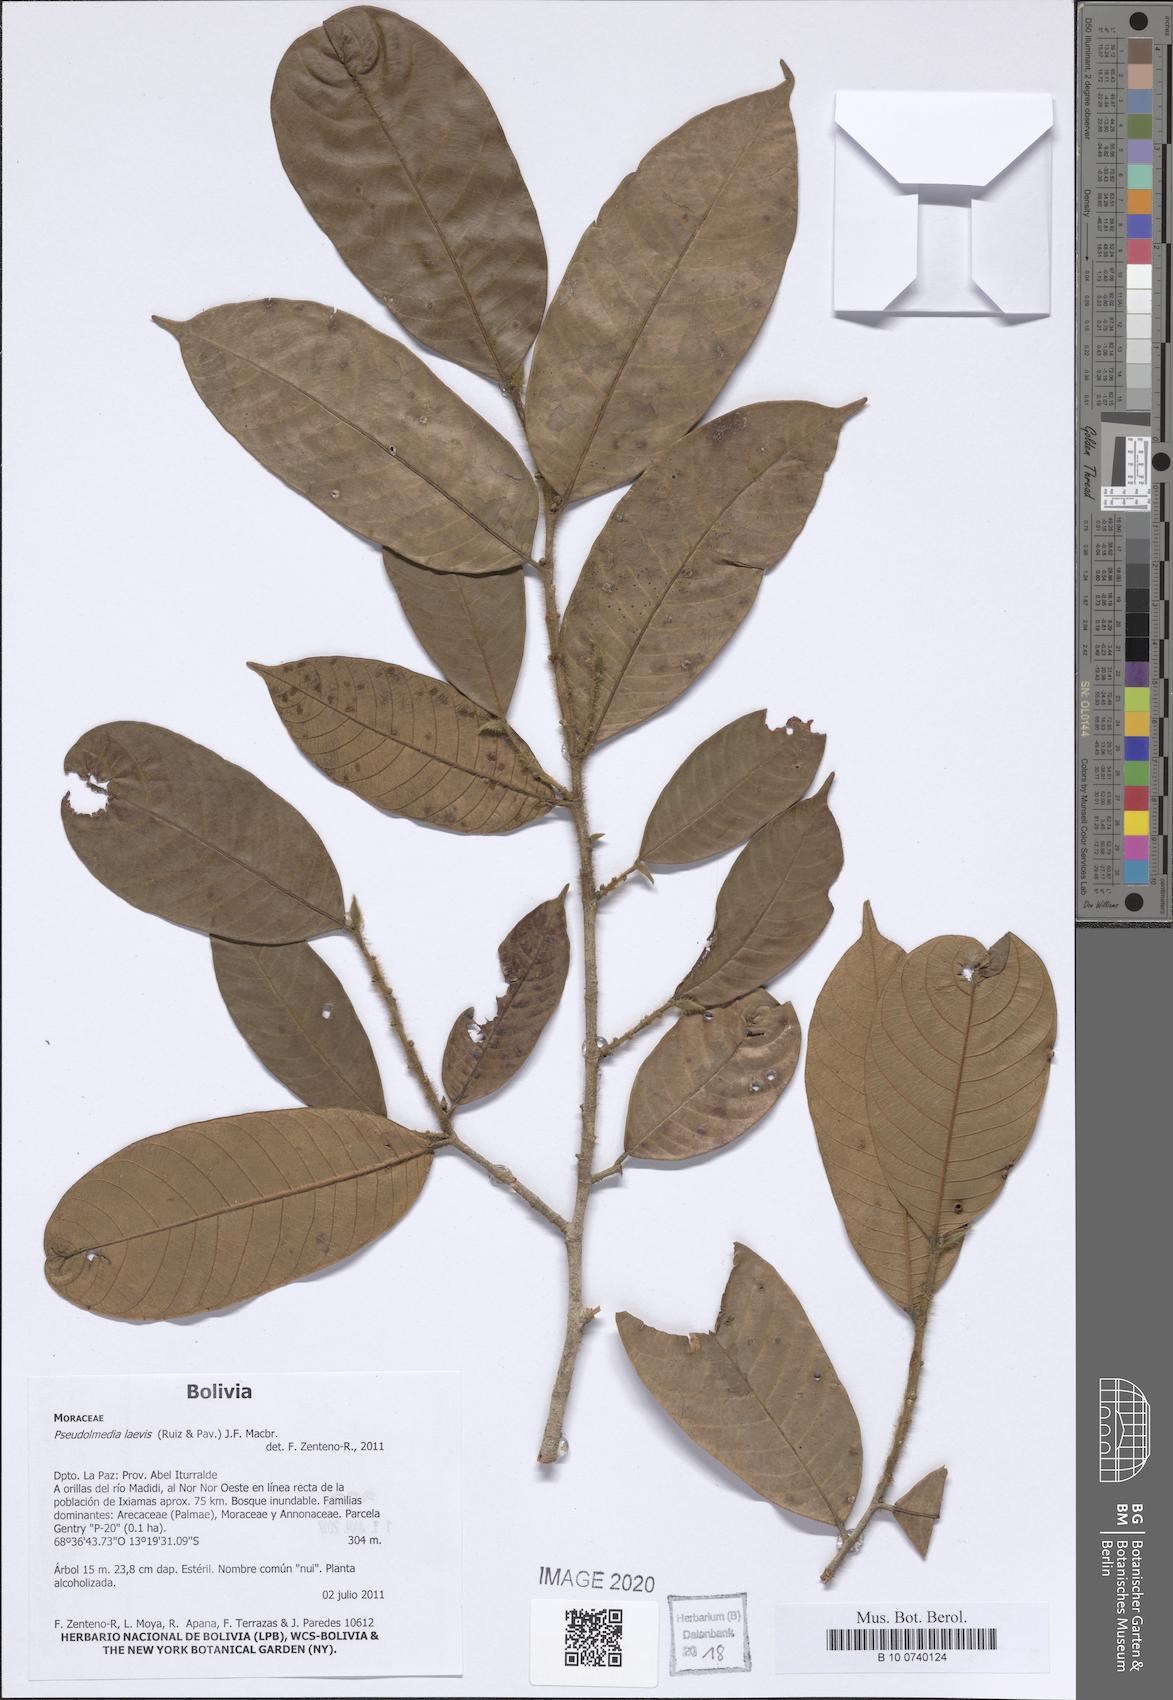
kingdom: Plantae
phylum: Tracheophyta
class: Magnoliopsida
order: Rosales
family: Moraceae
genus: Pseudolmedia
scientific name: Pseudolmedia laevis
